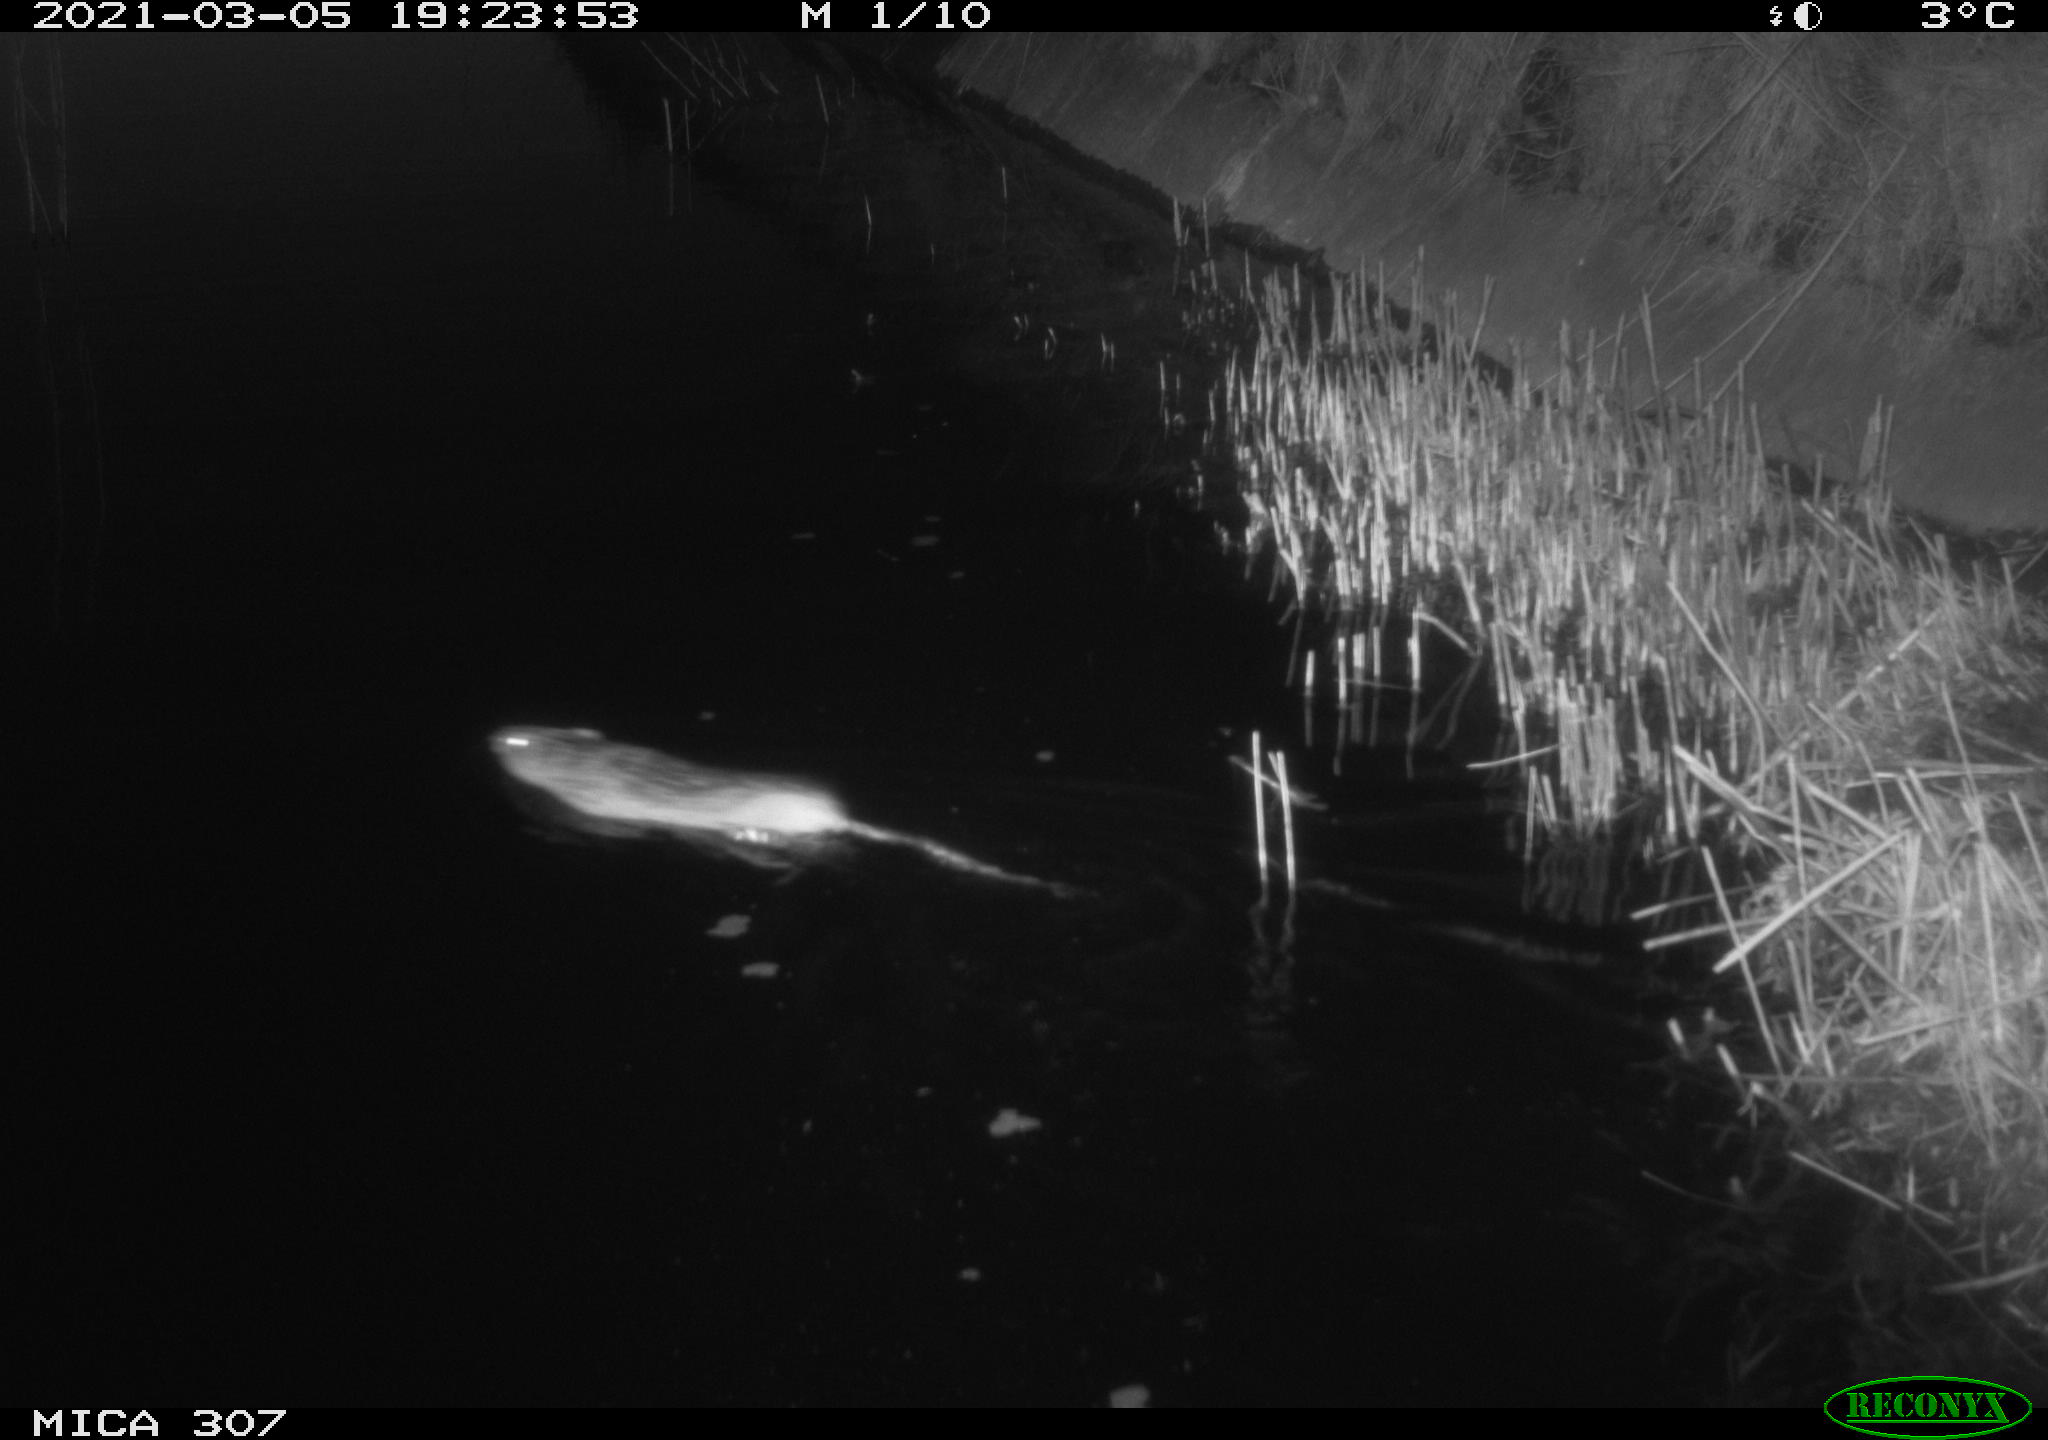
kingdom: Animalia
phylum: Chordata
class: Mammalia
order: Rodentia
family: Cricetidae
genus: Ondatra
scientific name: Ondatra zibethicus
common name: Muskrat
